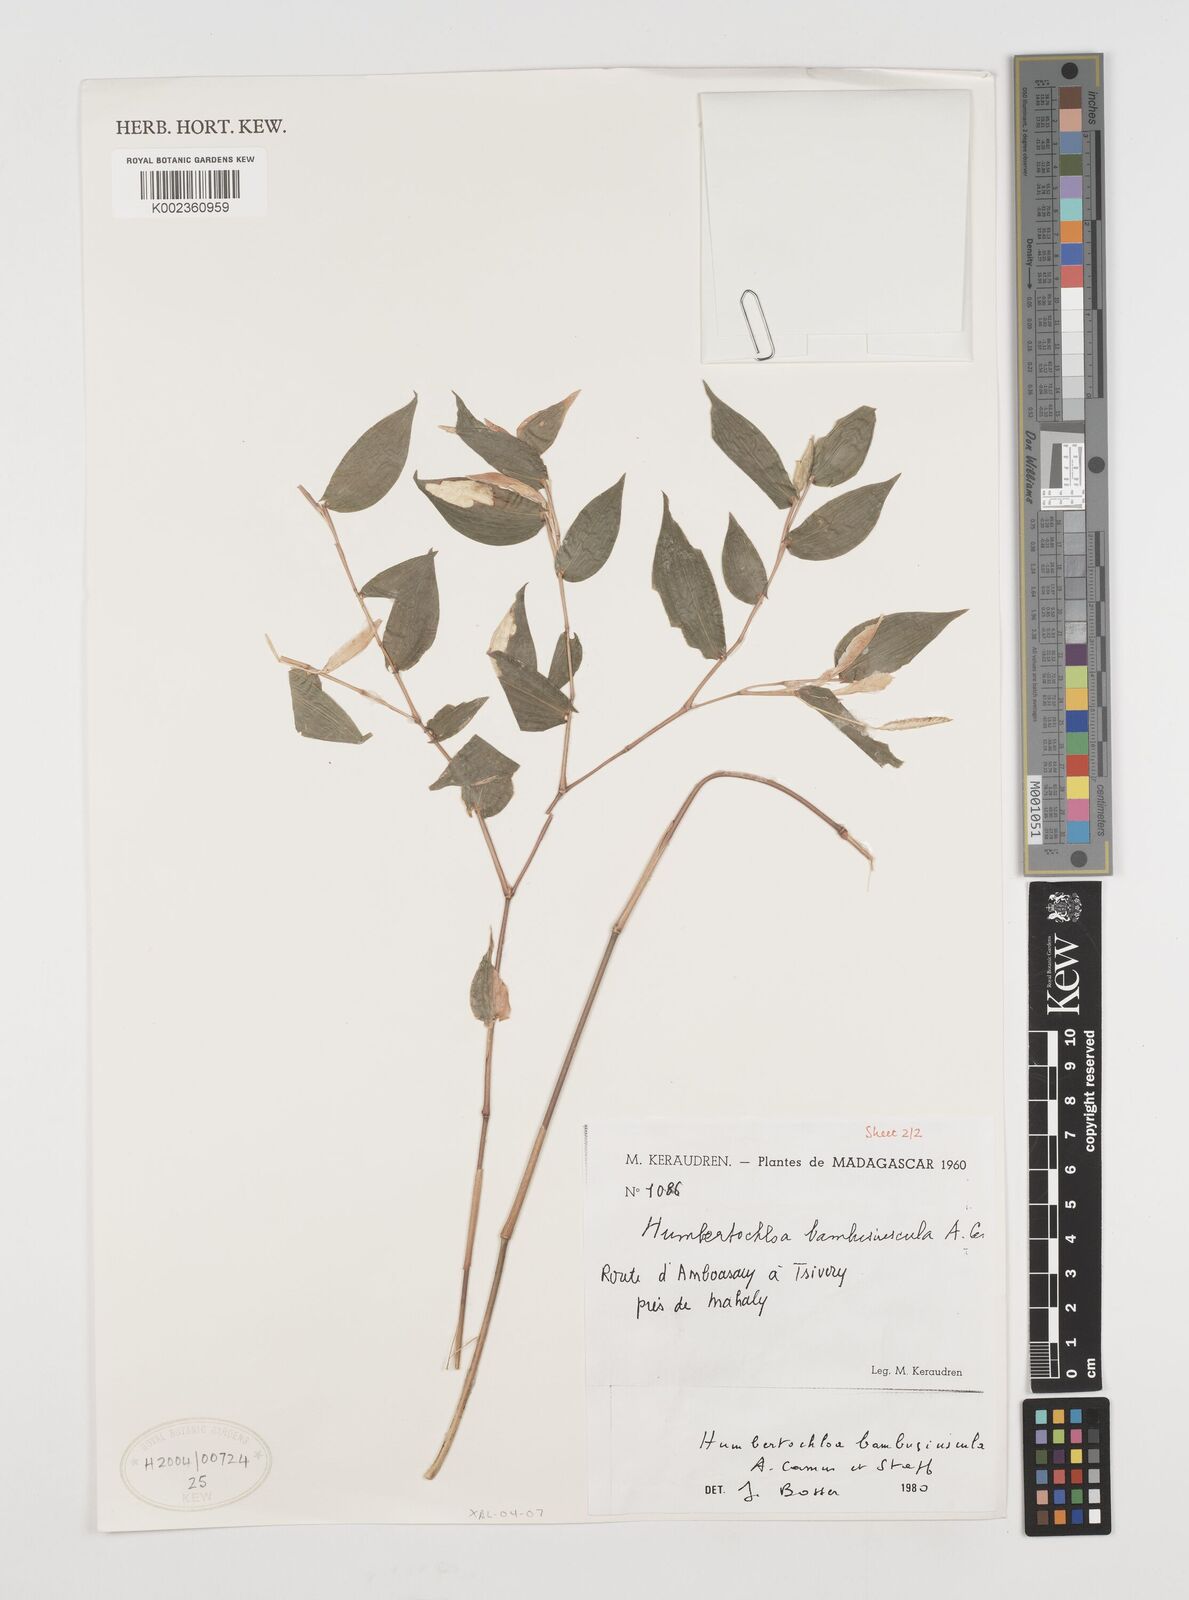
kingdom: Plantae
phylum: Tracheophyta
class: Liliopsida
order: Poales
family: Poaceae
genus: Humbertochloa
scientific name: Humbertochloa bambusiuscula
